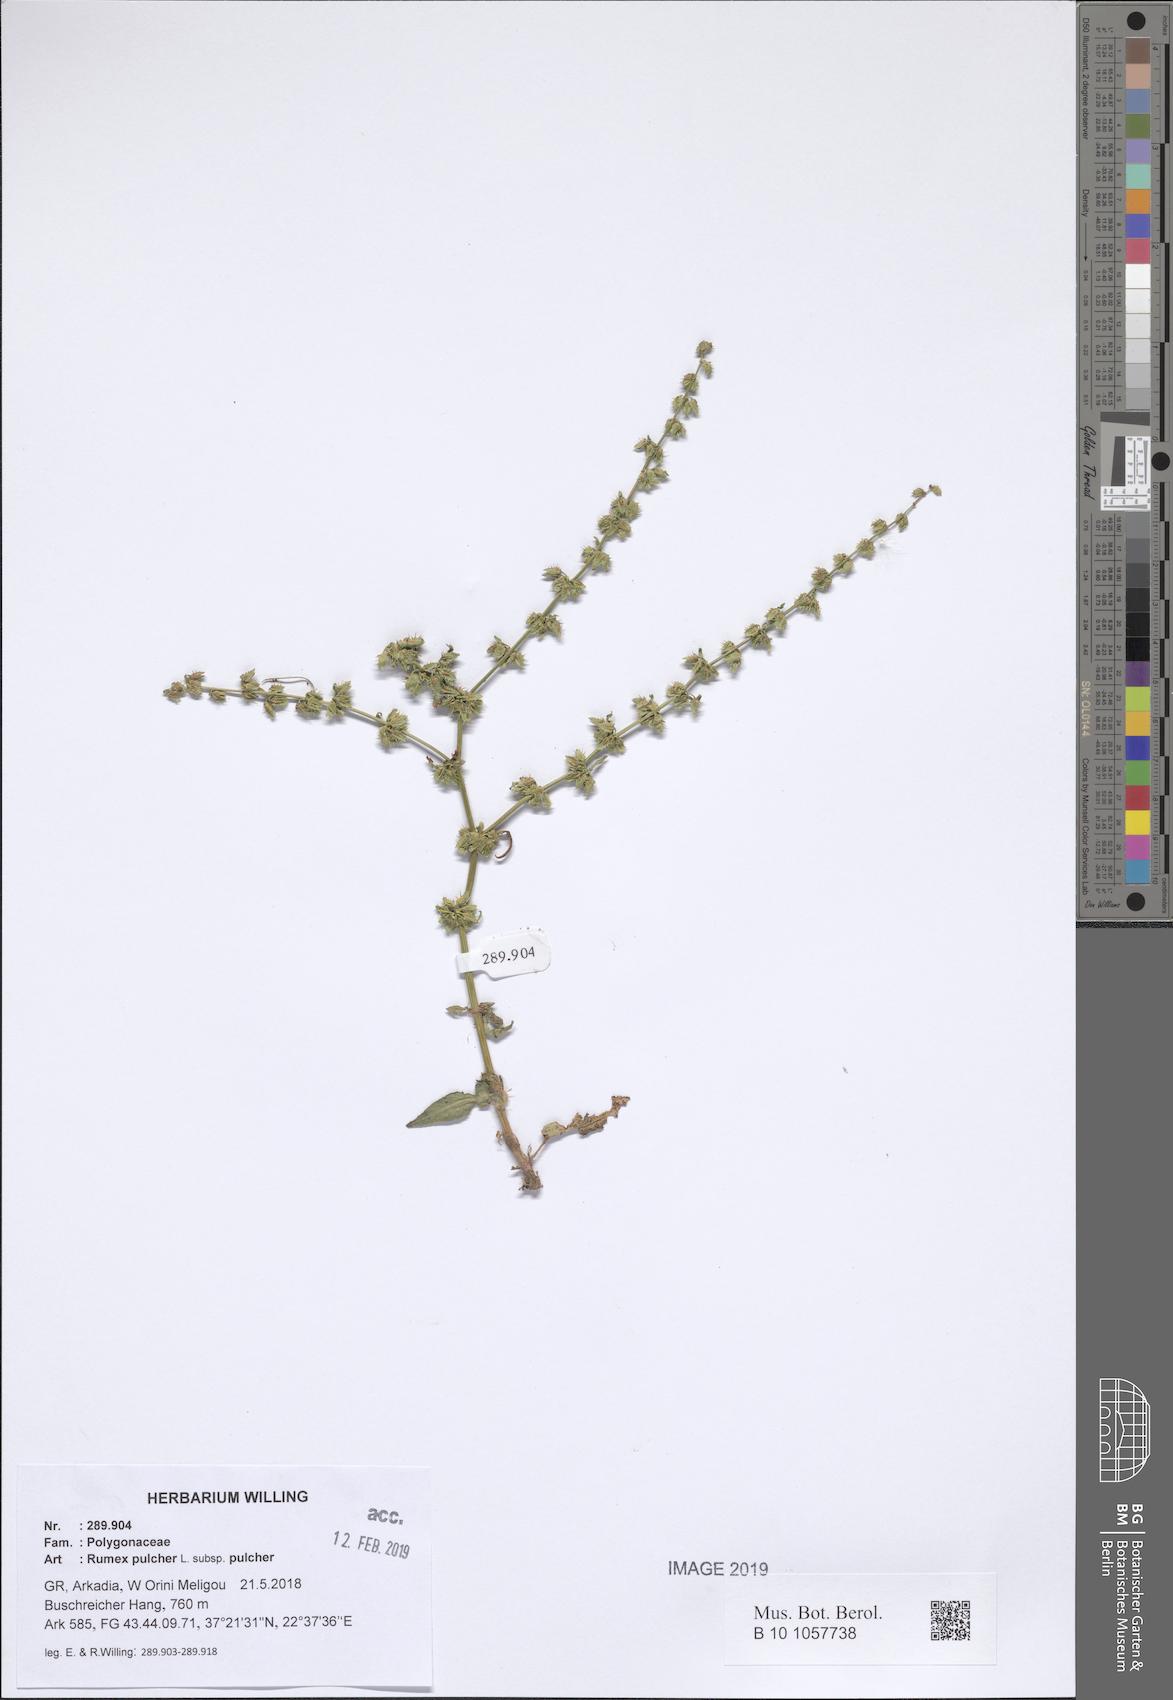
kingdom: Plantae
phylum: Tracheophyta
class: Magnoliopsida
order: Caryophyllales
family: Polygonaceae
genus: Rumex
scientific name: Rumex pulcher
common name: Fiddle dock
